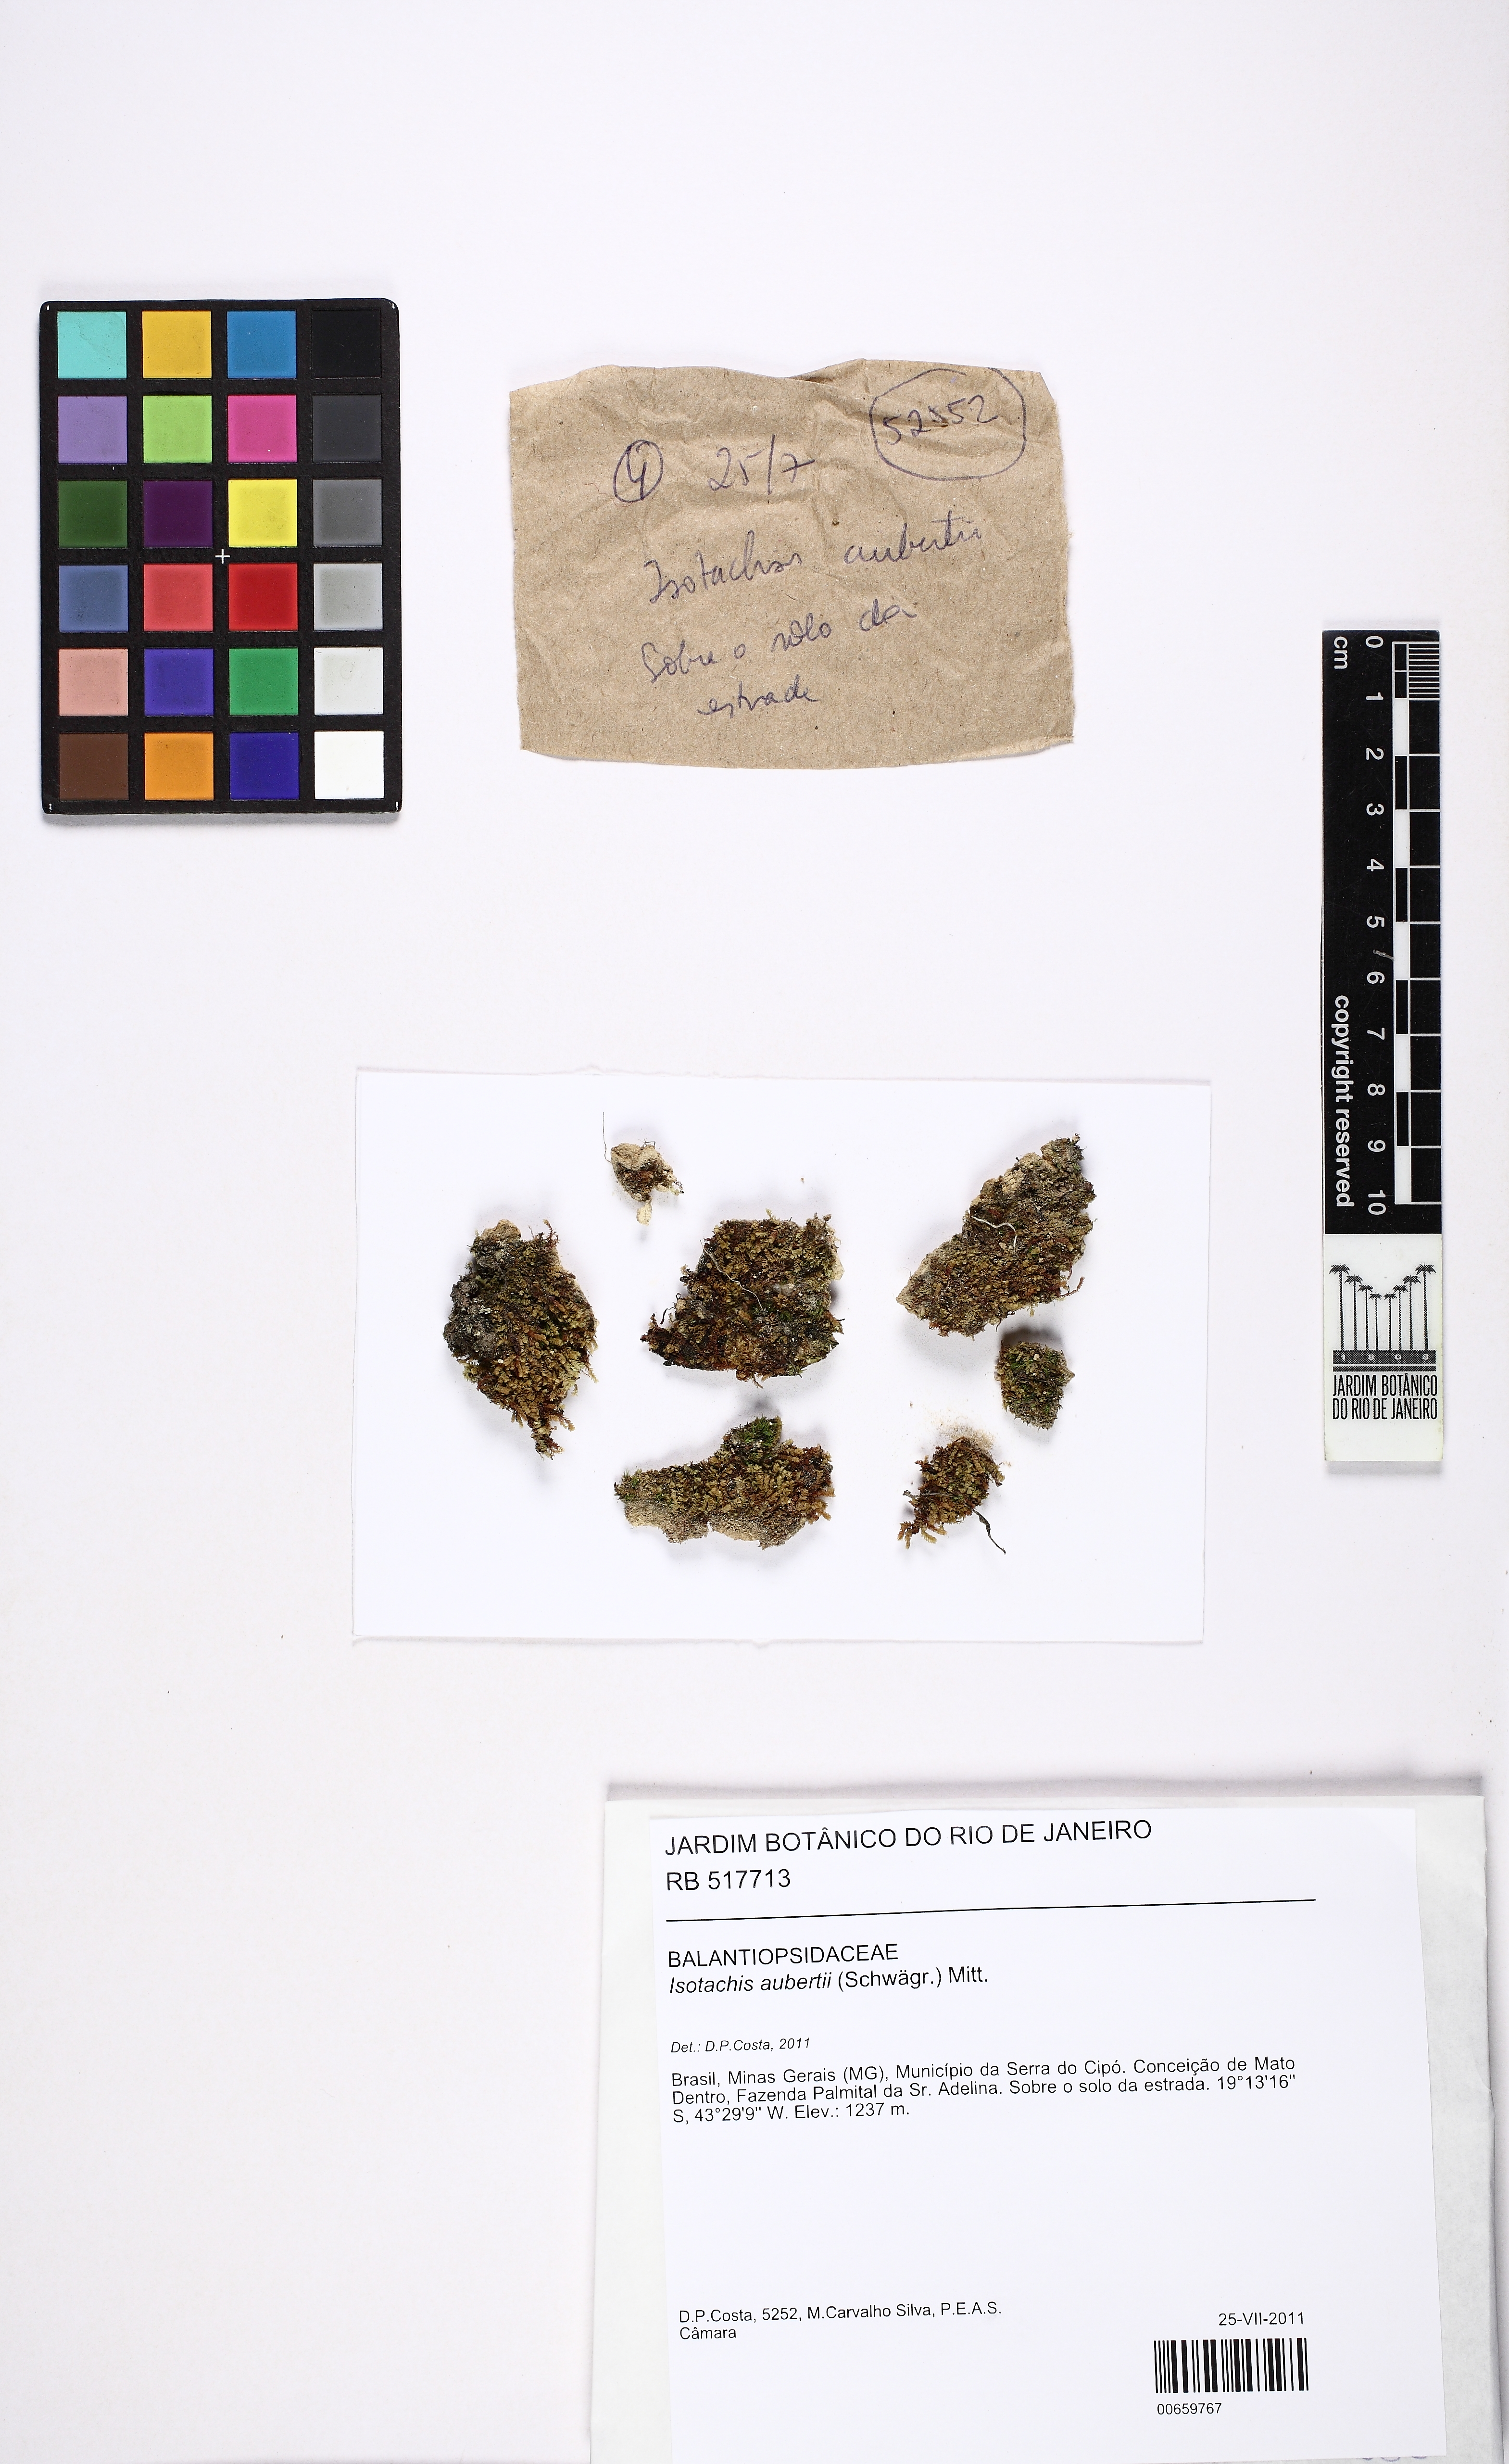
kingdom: Plantae
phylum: Marchantiophyta
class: Jungermanniopsida
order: Jungermanniales
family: Balantiopsidaceae
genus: Isotachis
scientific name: Isotachis aubertii
